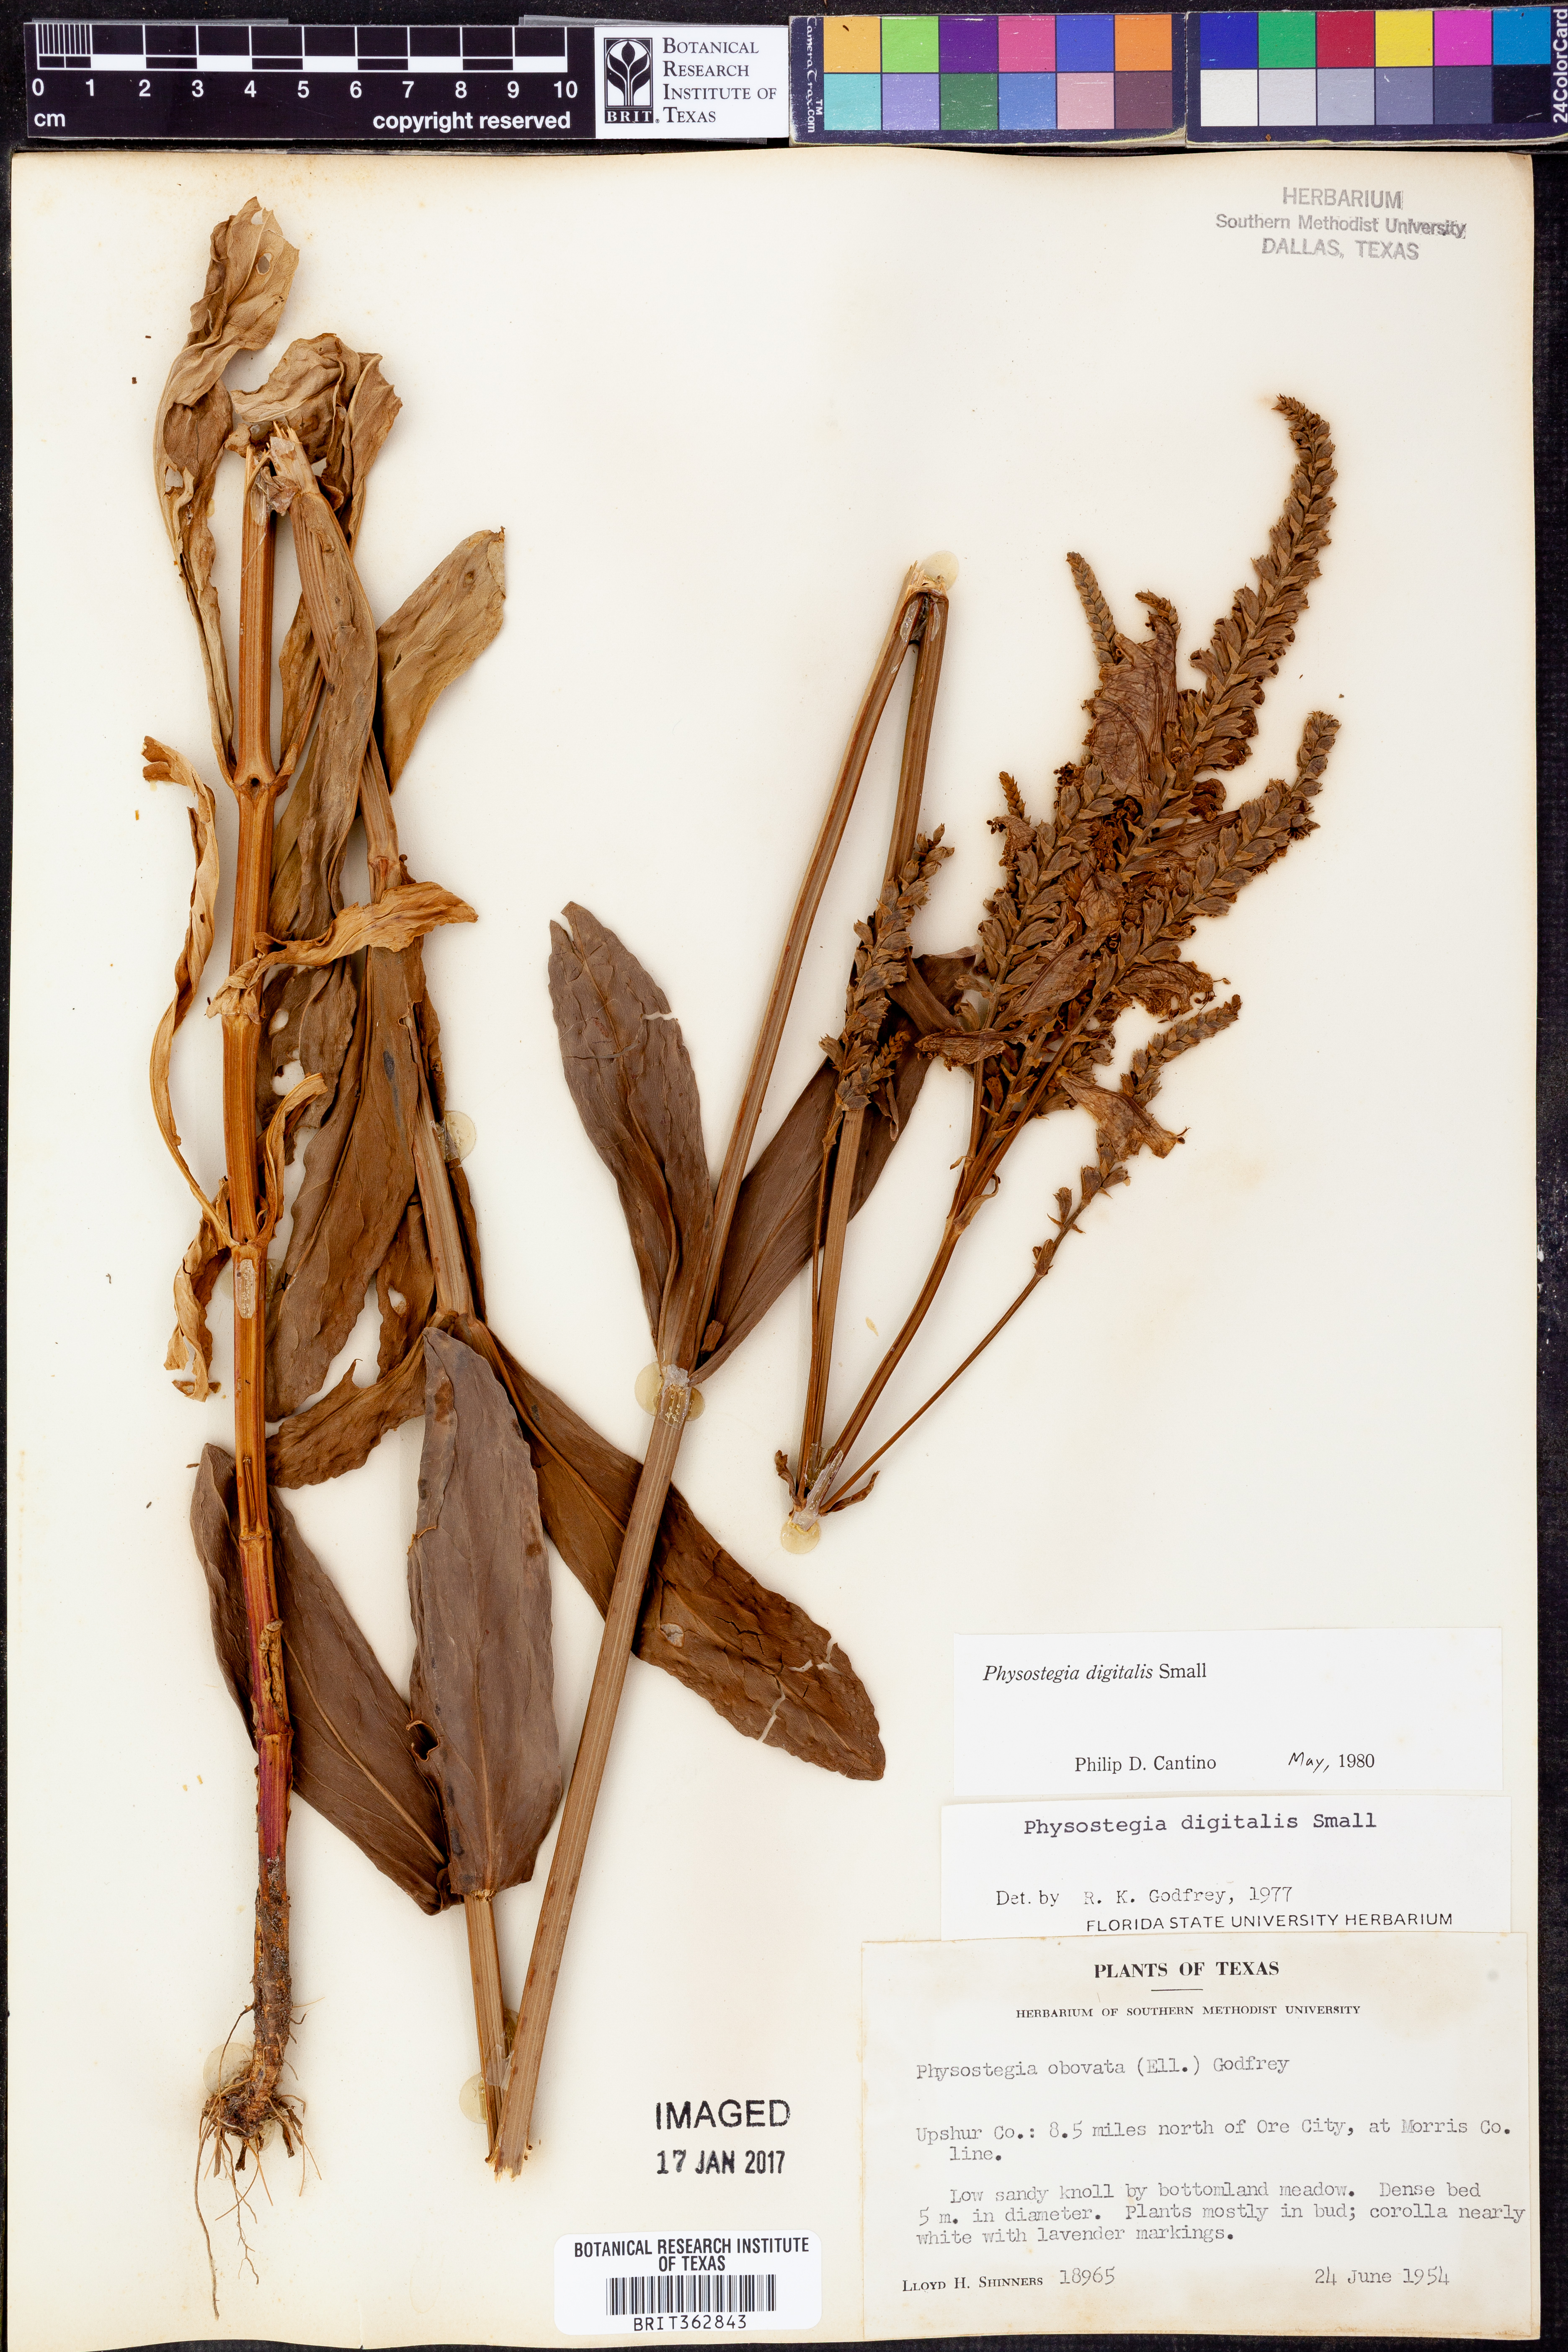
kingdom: Plantae
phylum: Tracheophyta
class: Magnoliopsida
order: Lamiales
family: Lamiaceae
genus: Physostegia
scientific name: Physostegia digitalis
